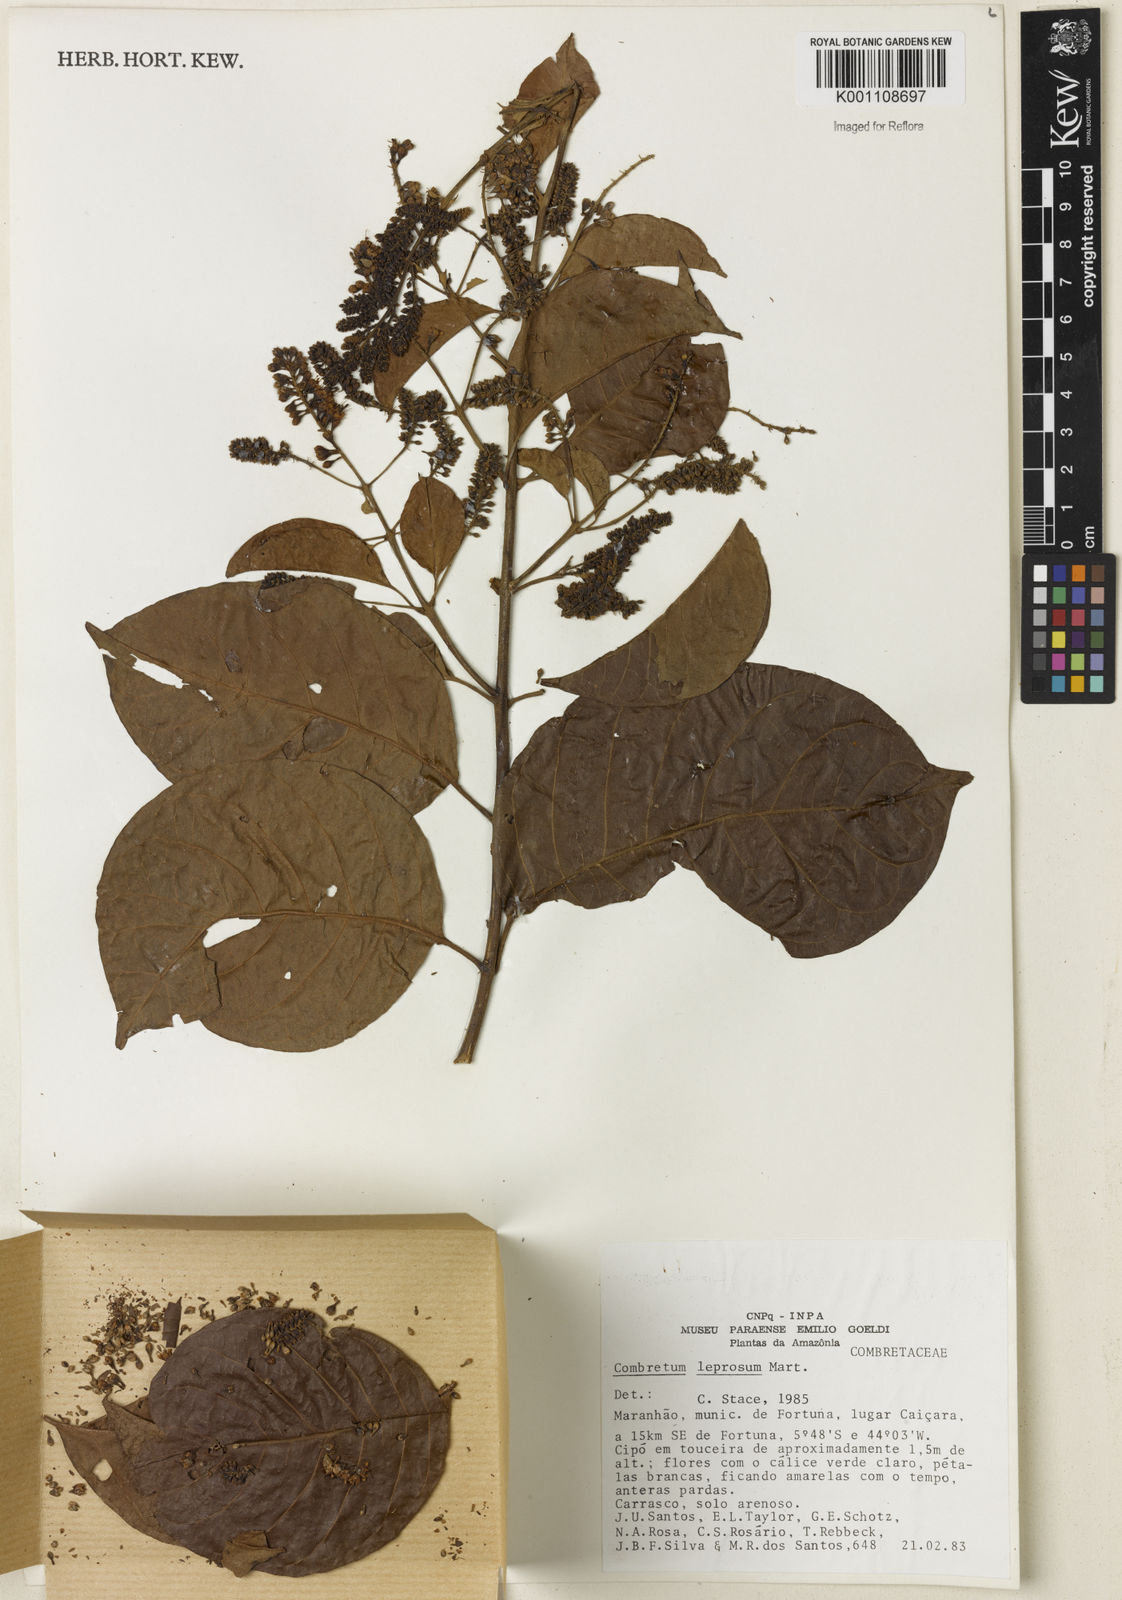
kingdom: Plantae
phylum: Tracheophyta
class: Magnoliopsida
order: Myrtales
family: Combretaceae
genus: Combretum
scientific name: Combretum leprosum
